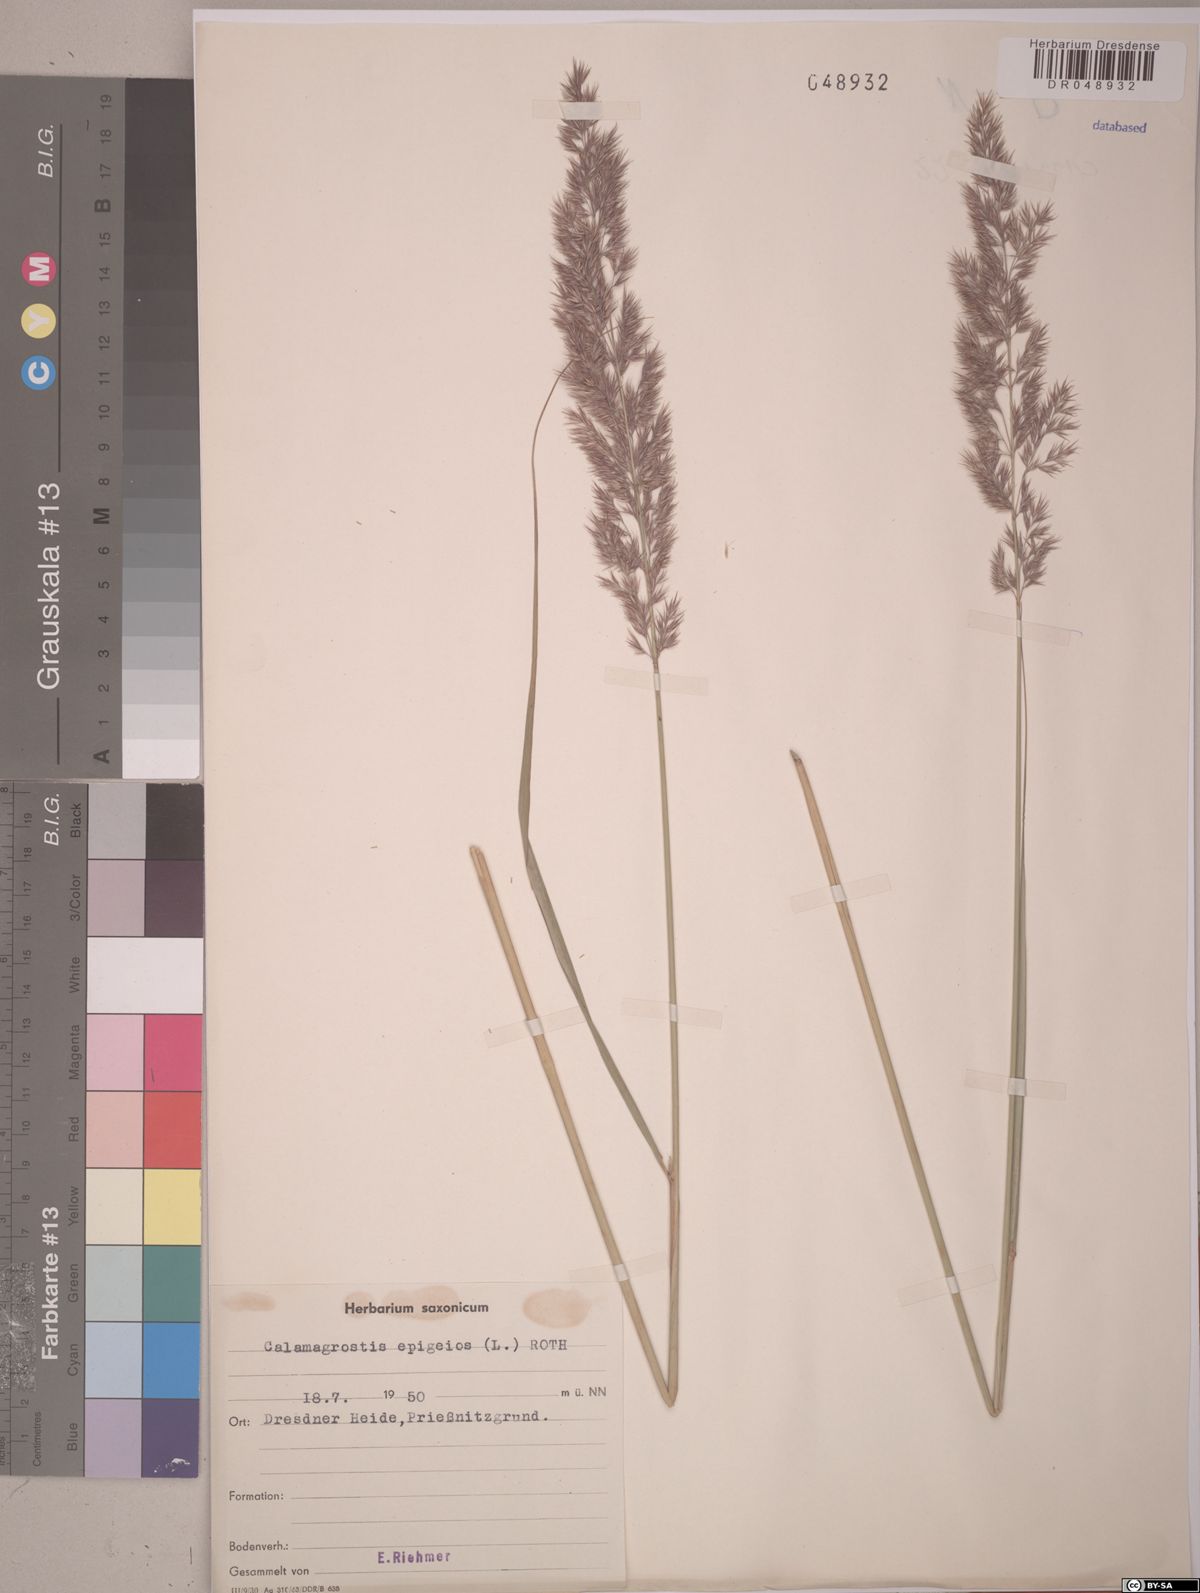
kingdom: Plantae
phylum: Tracheophyta
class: Liliopsida
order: Poales
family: Poaceae
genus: Calamagrostis
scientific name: Calamagrostis epigejos
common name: Wood small-reed
